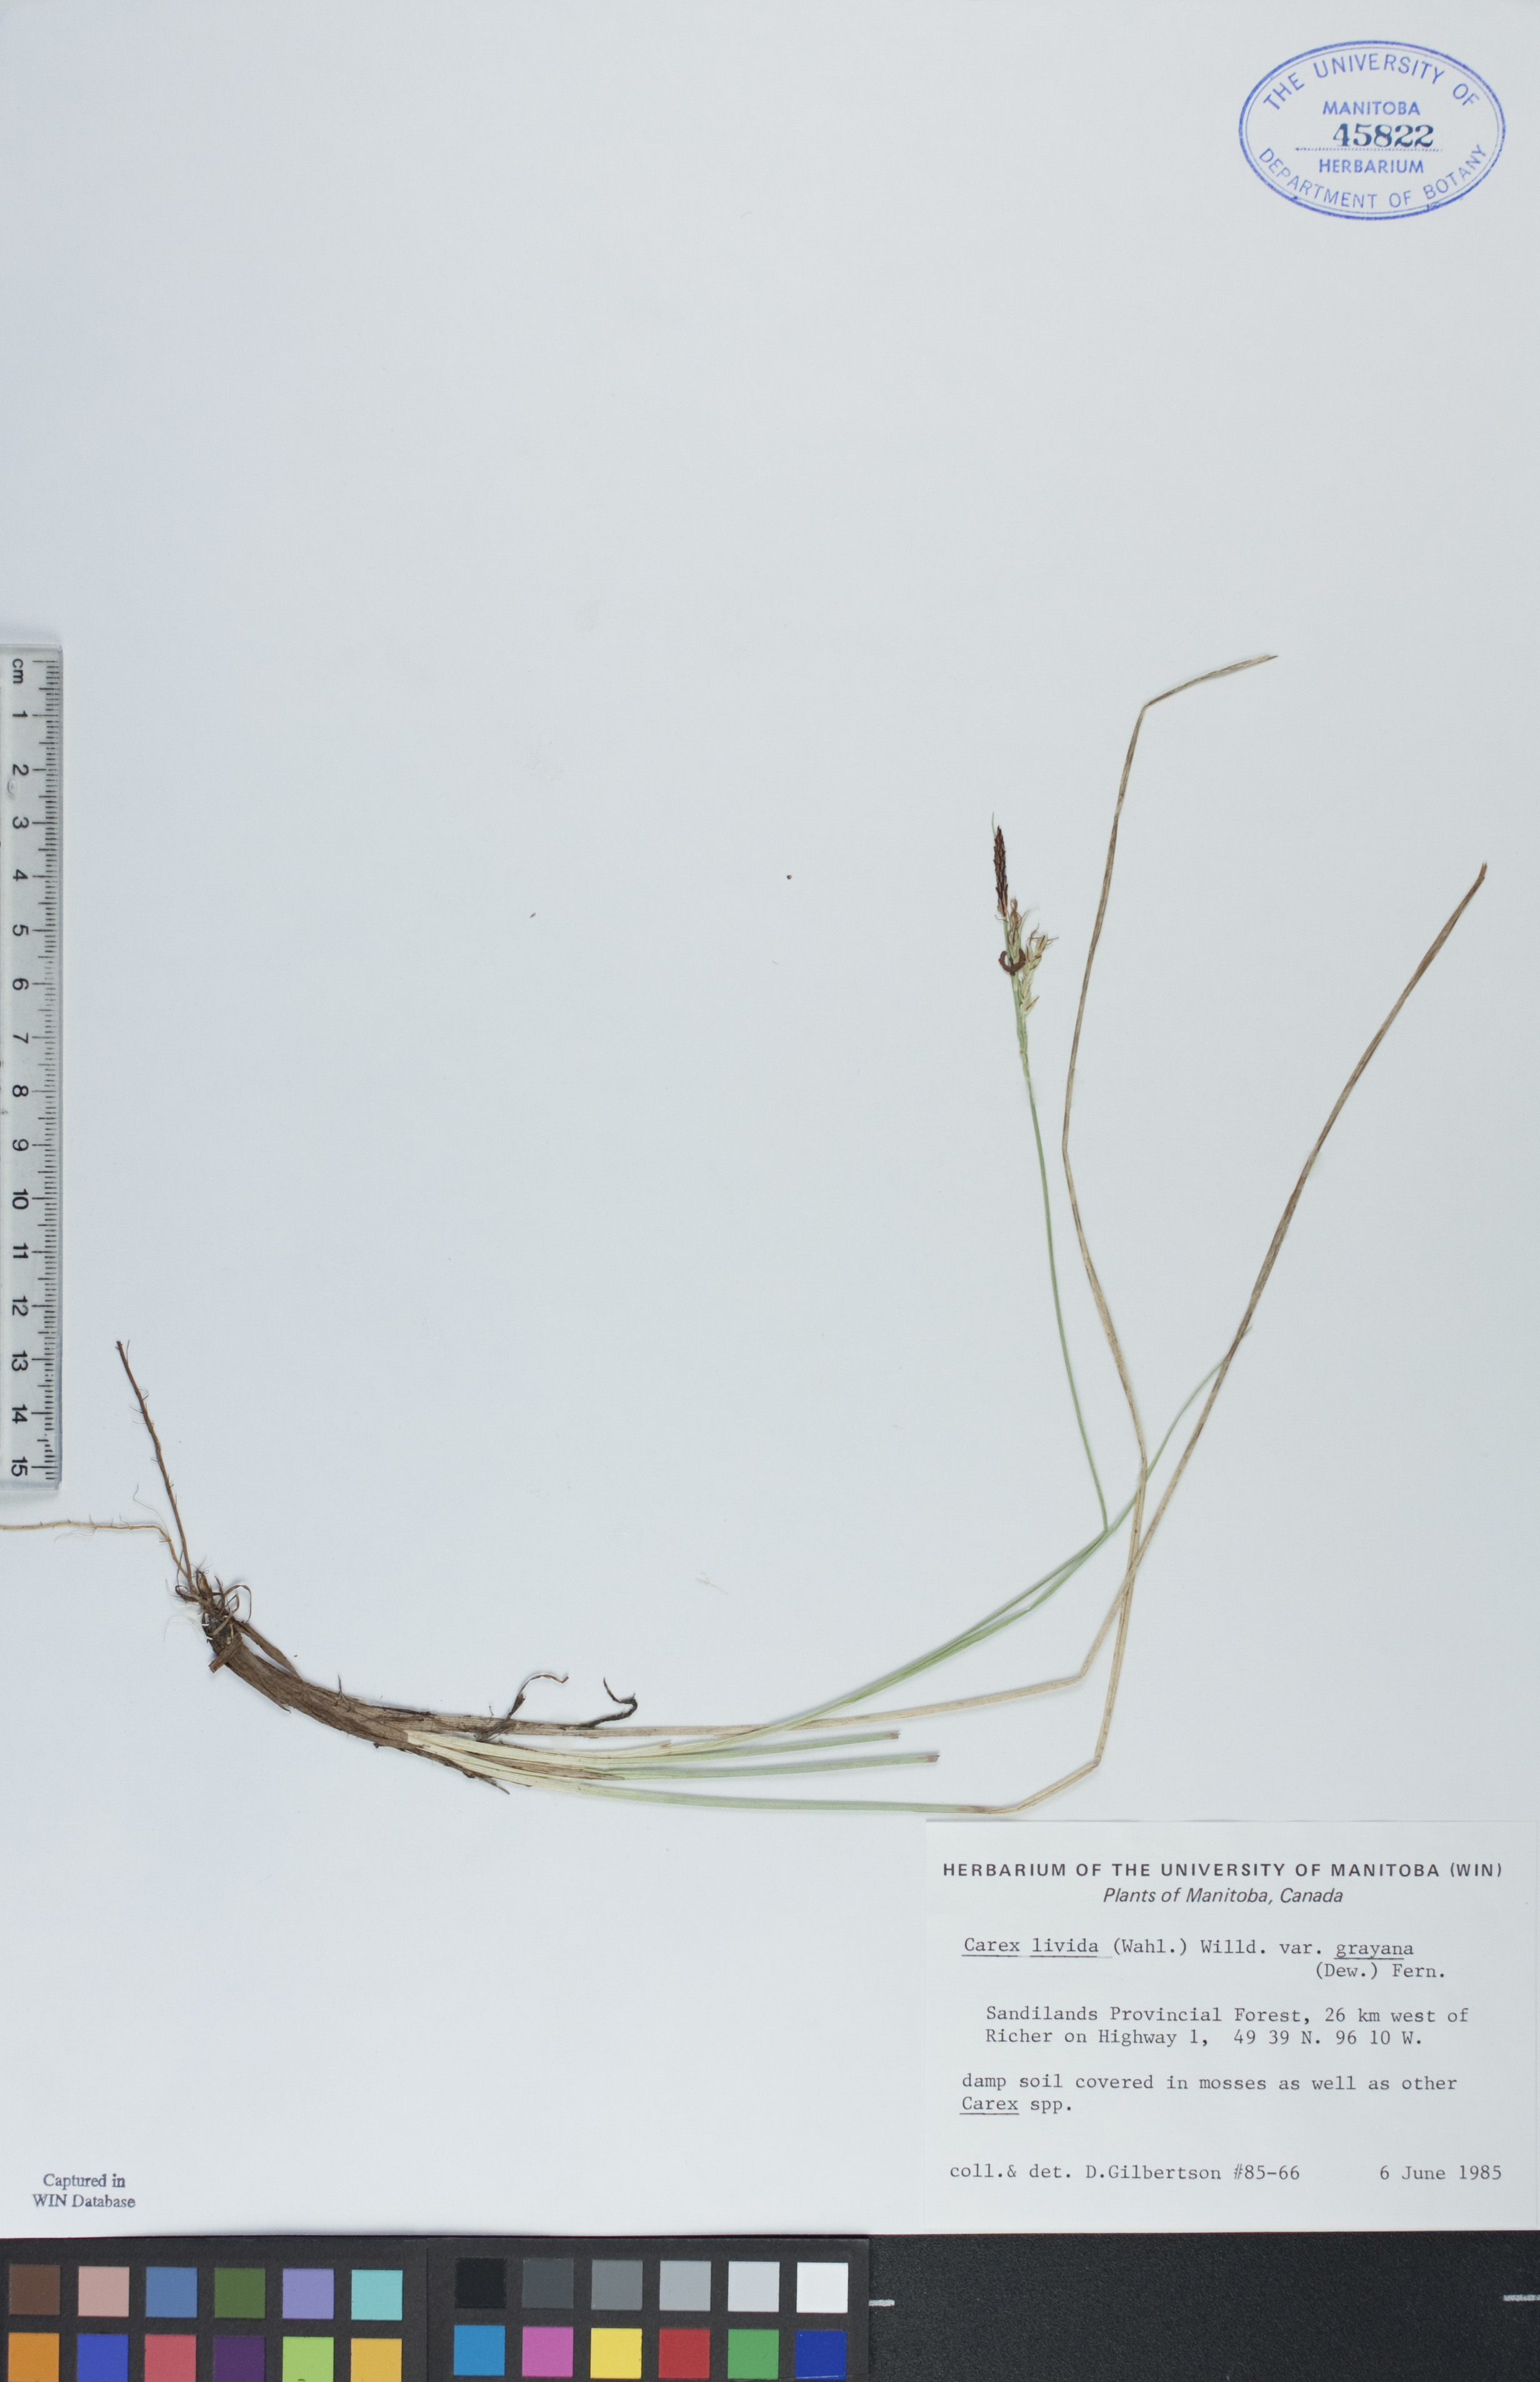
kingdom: Plantae
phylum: Tracheophyta
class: Liliopsida
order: Poales
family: Cyperaceae
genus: Carex
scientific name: Carex livida
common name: Livid sedge
